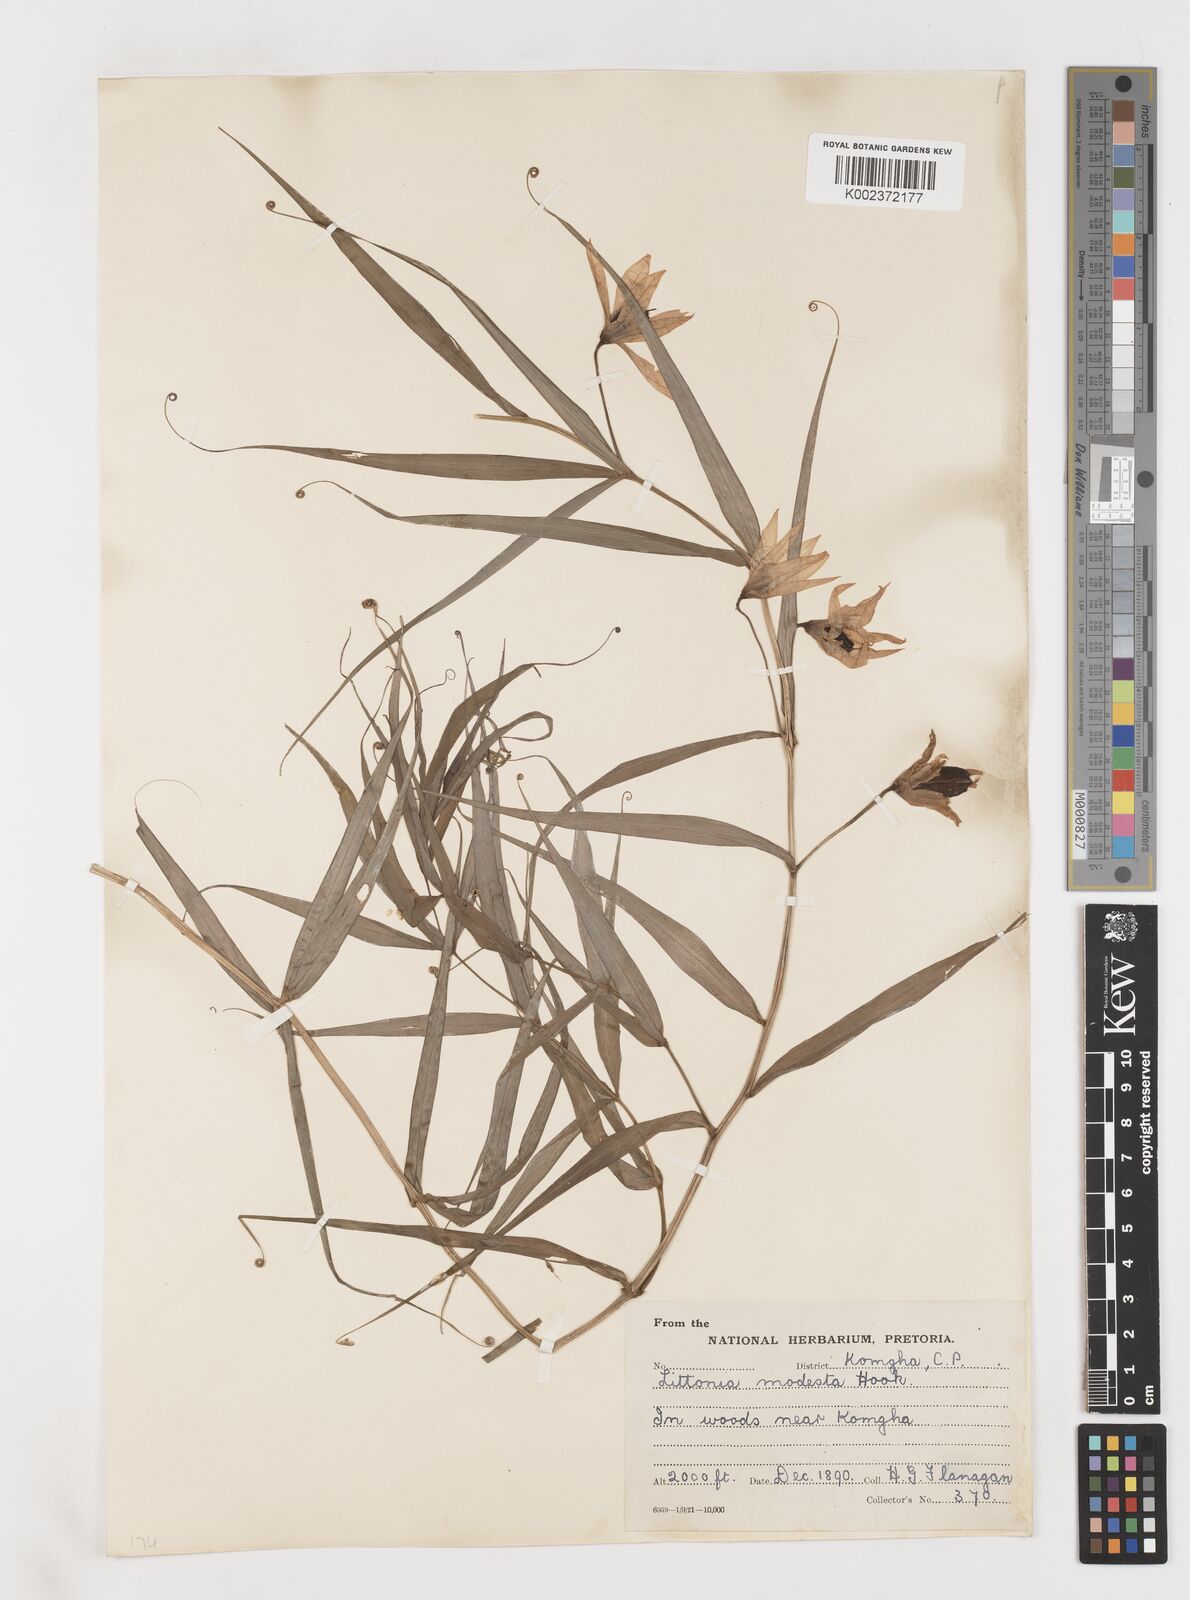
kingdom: Plantae
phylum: Tracheophyta
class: Liliopsida
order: Liliales
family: Colchicaceae
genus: Gloriosa
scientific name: Gloriosa modesta
